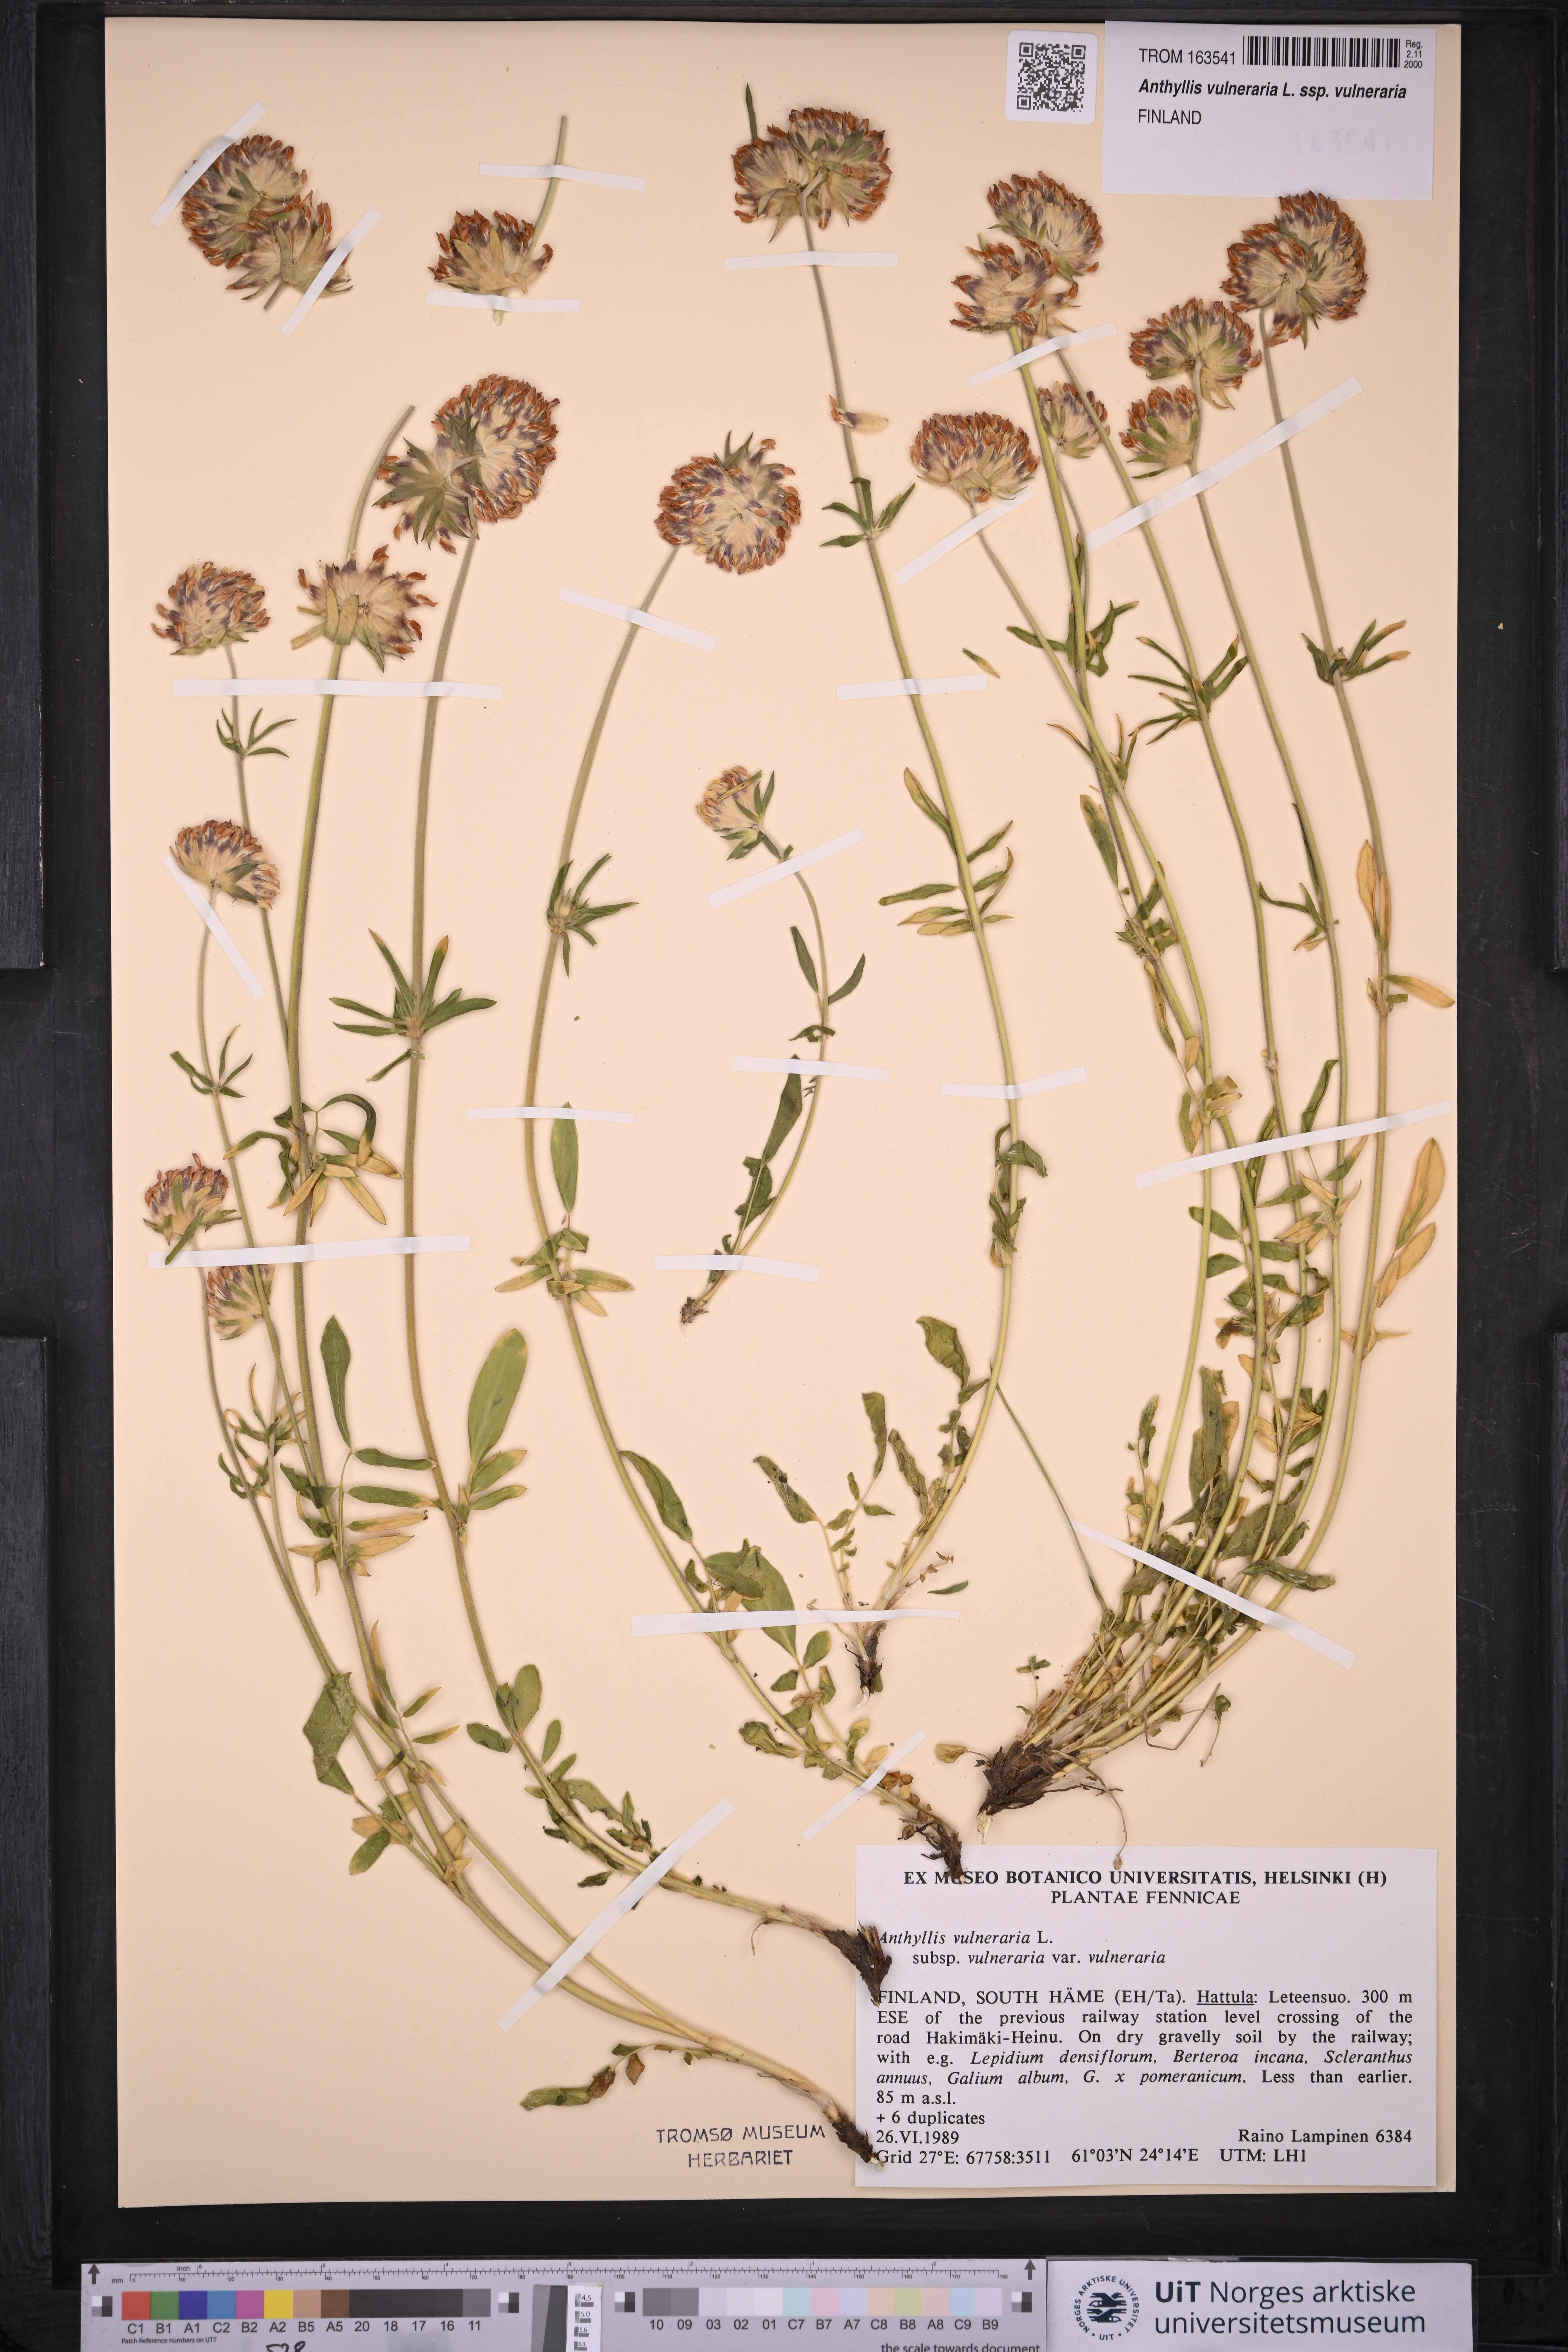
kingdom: Plantae
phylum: Tracheophyta
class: Magnoliopsida
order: Fabales
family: Fabaceae
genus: Anthyllis
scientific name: Anthyllis vulneraria
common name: Kidney vetch
